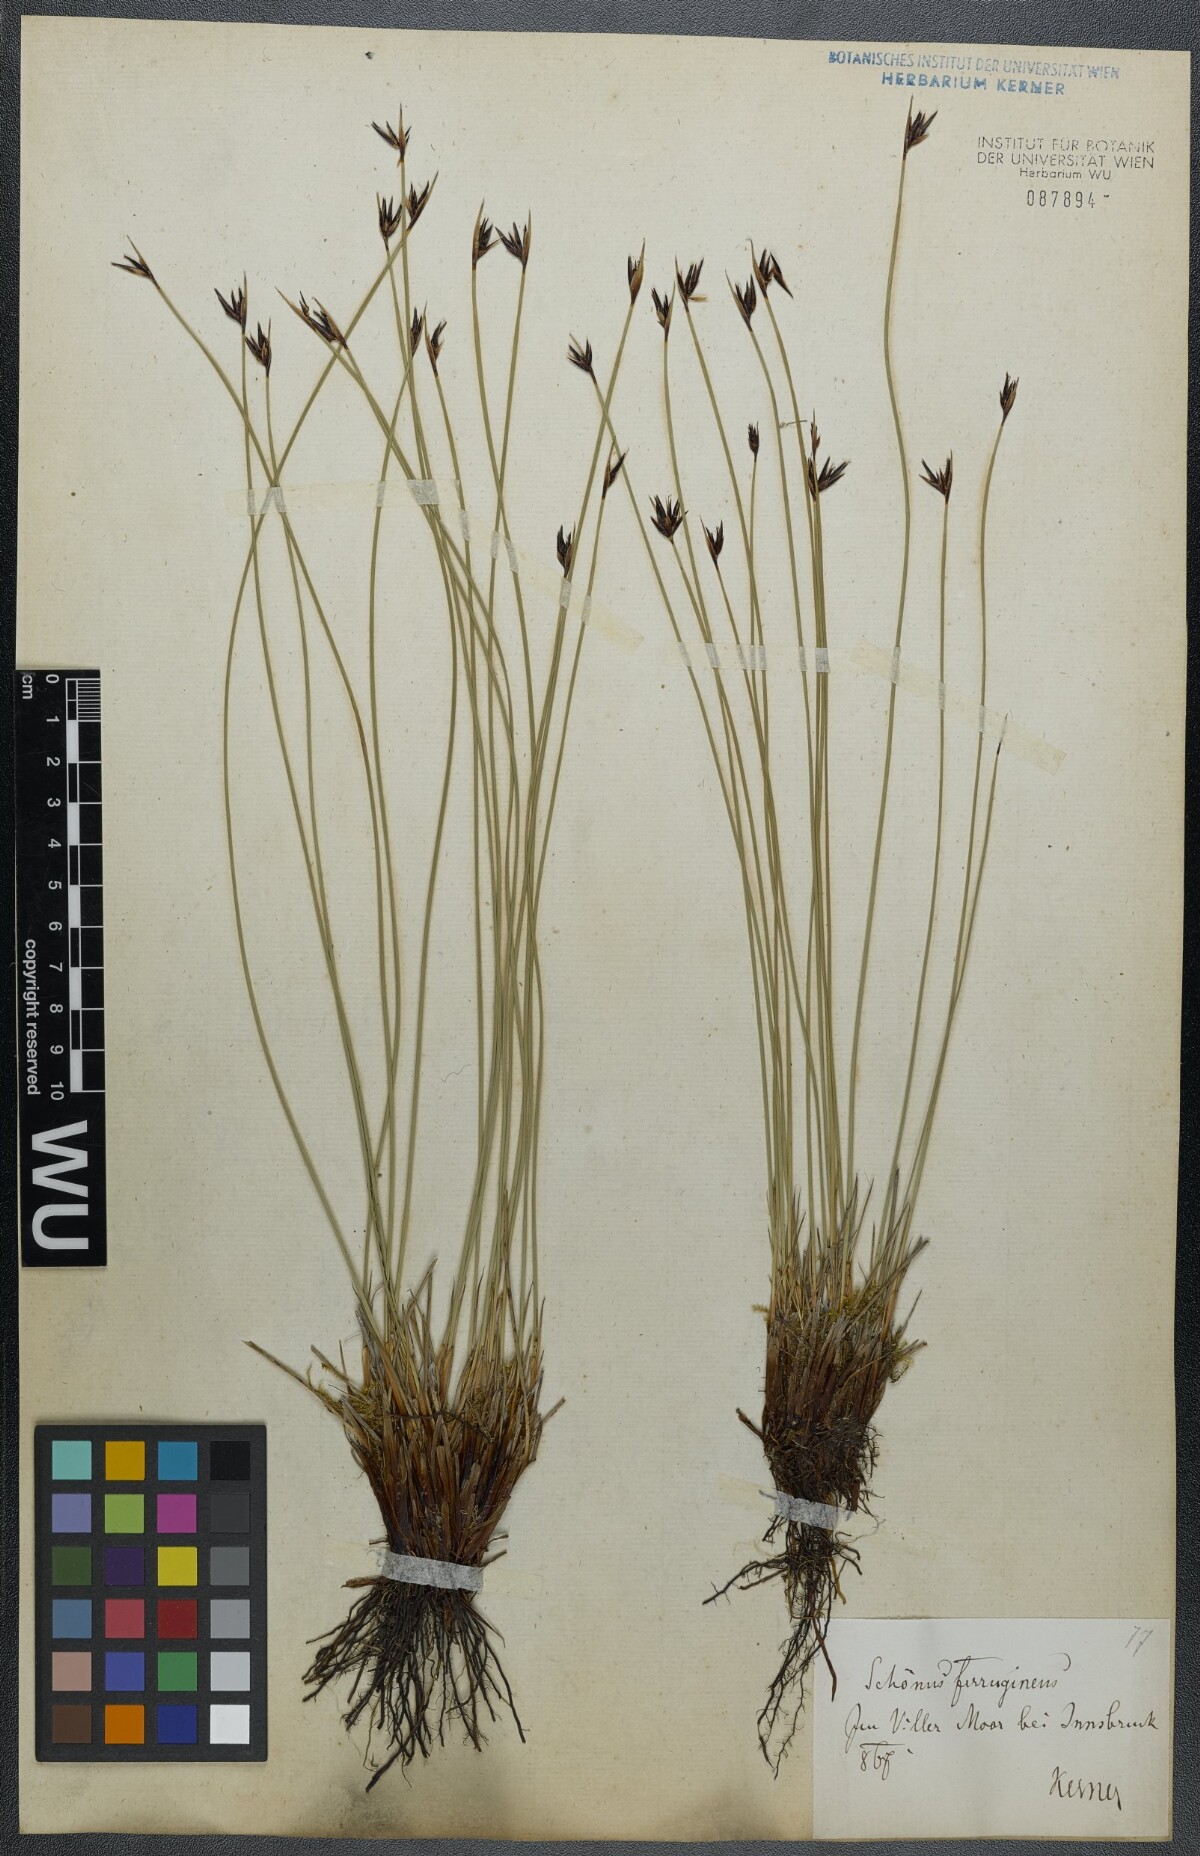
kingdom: Plantae
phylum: Tracheophyta
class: Liliopsida
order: Poales
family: Cyperaceae
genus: Schoenus
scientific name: Schoenus ferrugineus
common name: Brown bog-rush
